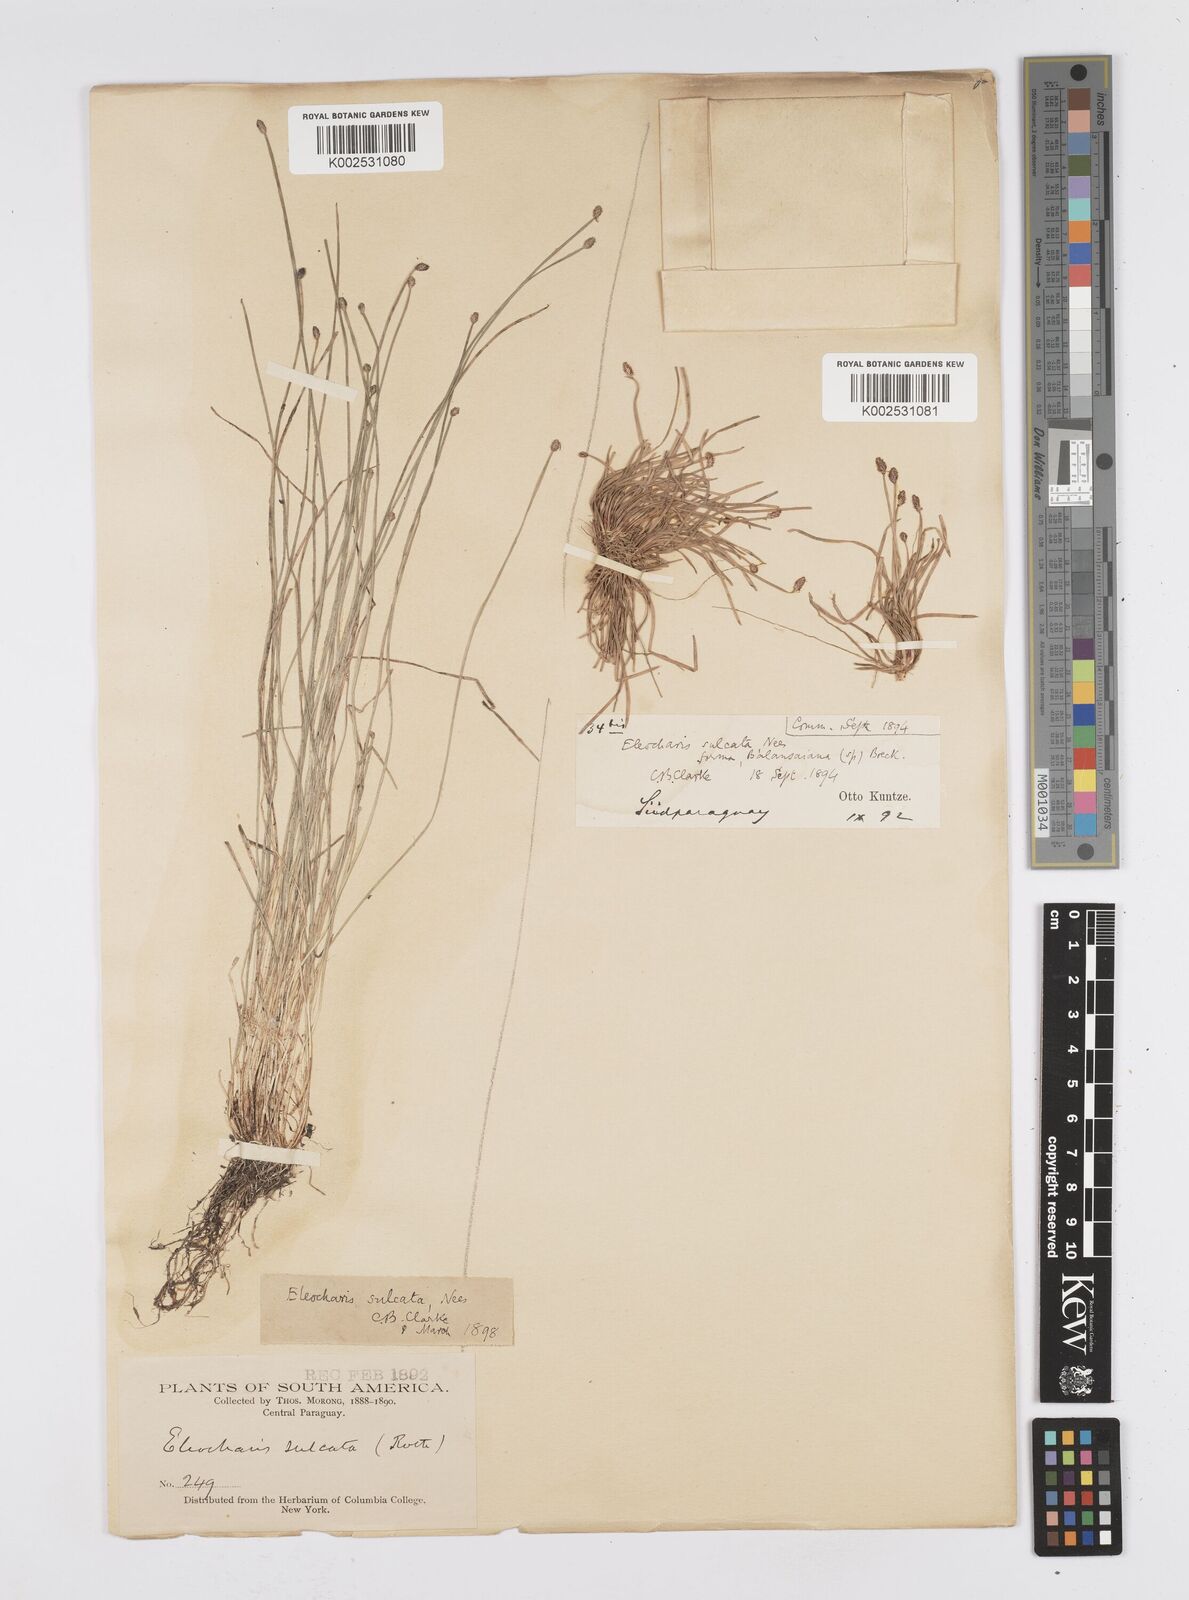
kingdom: Plantae
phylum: Tracheophyta
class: Liliopsida
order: Poales
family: Cyperaceae
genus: Eleocharis
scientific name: Eleocharis filiculmis
